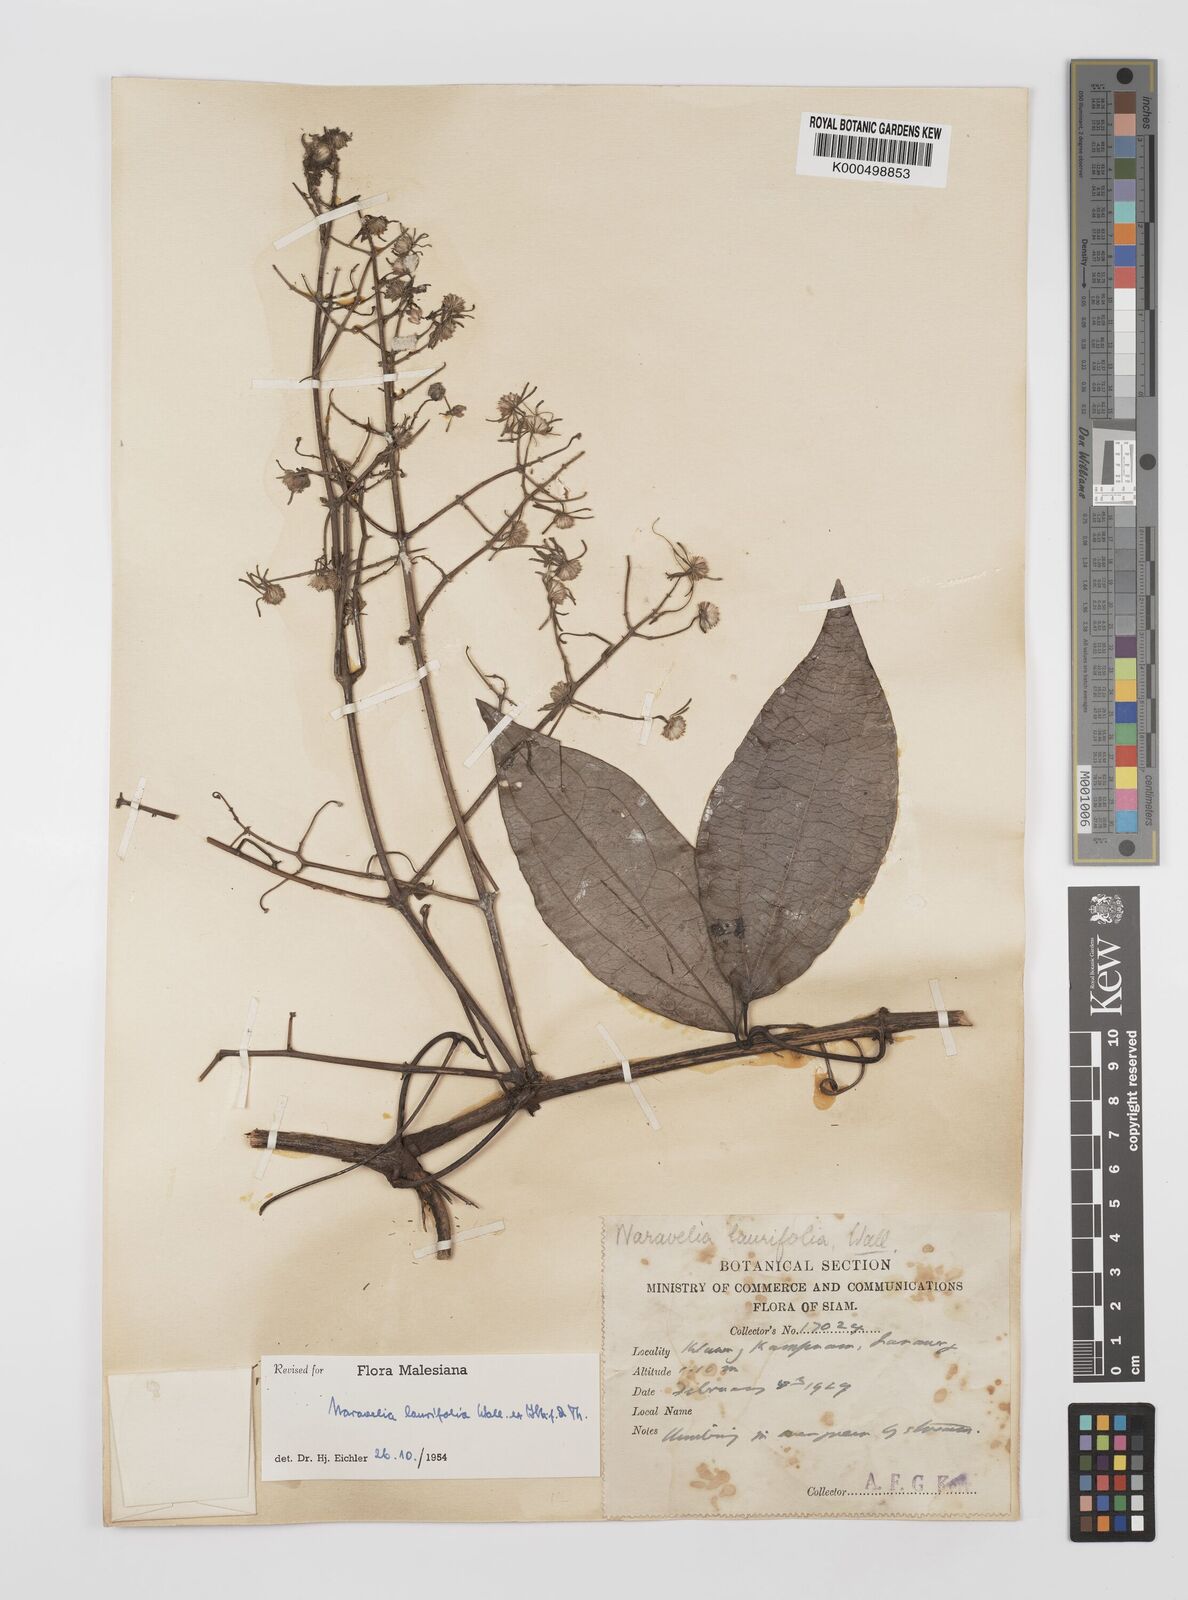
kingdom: Plantae
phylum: Tracheophyta
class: Magnoliopsida
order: Ranunculales
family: Ranunculaceae
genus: Clematis
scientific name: Clematis horripilata
